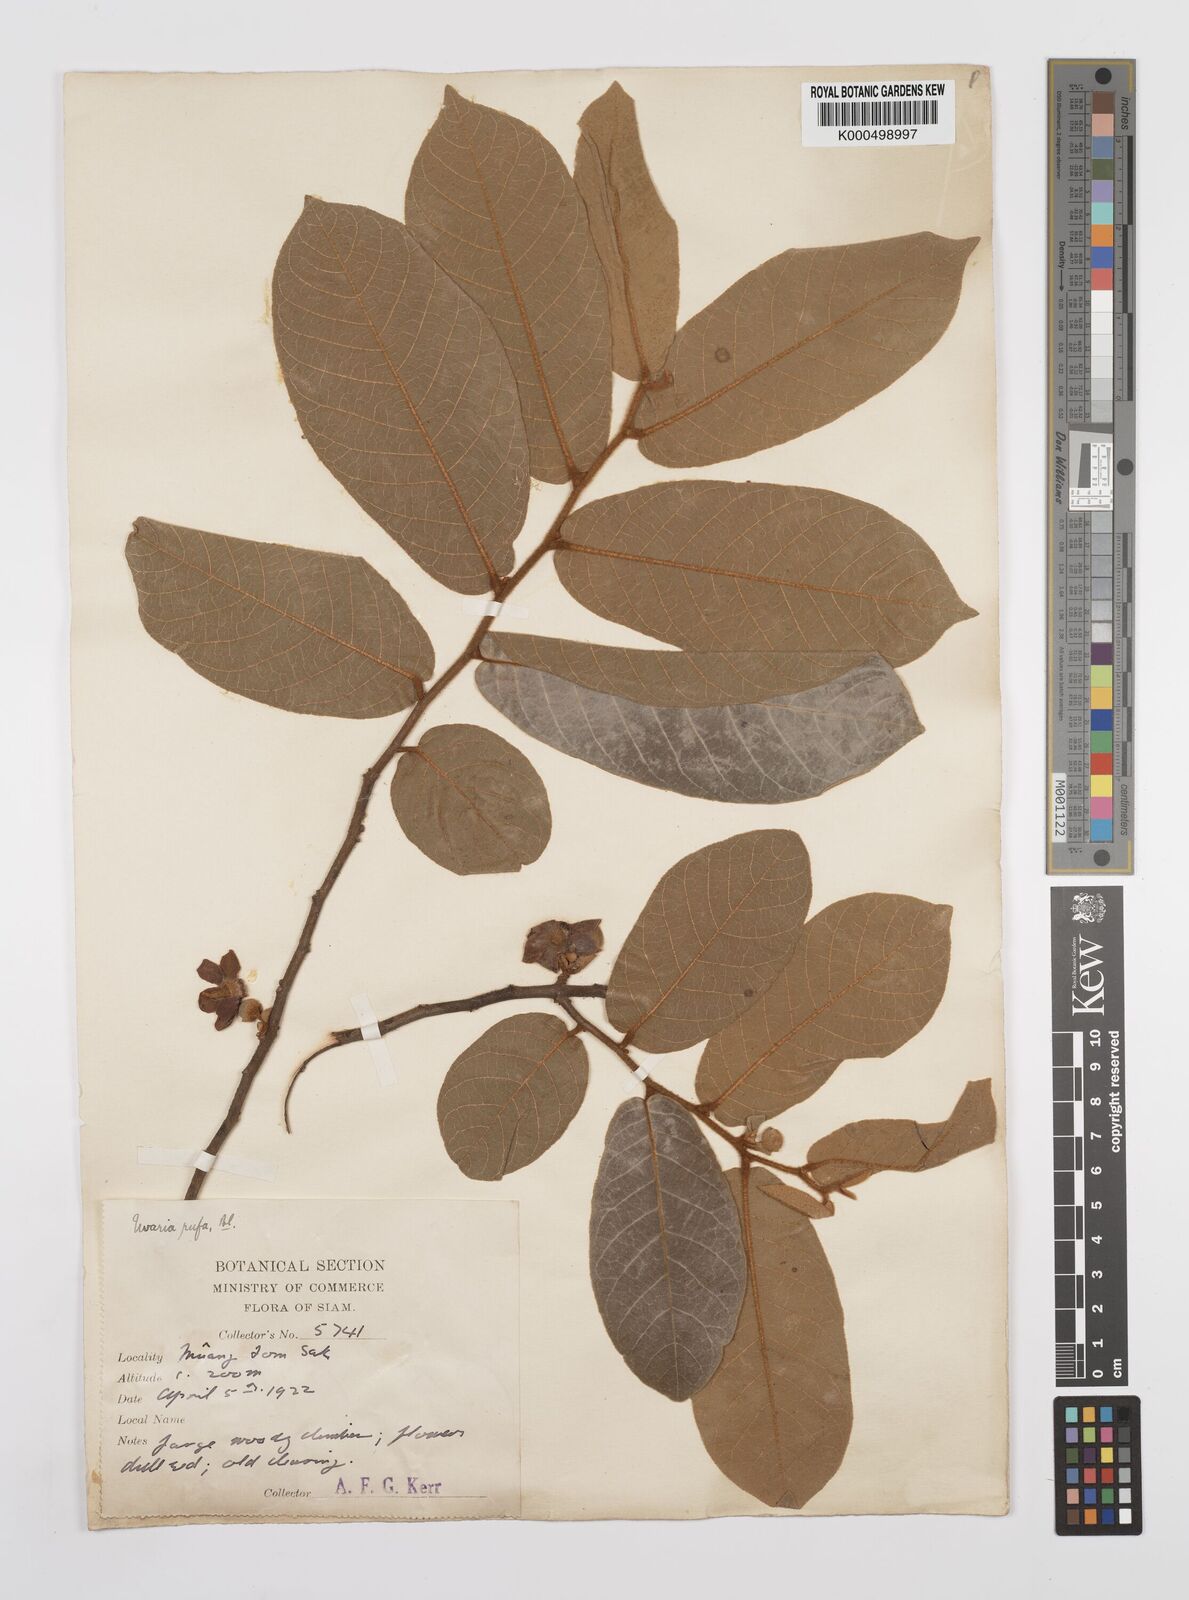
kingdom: Plantae
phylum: Tracheophyta
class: Magnoliopsida
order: Magnoliales
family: Annonaceae
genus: Uvaria
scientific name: Uvaria rufa
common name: Torres strait scrambler
